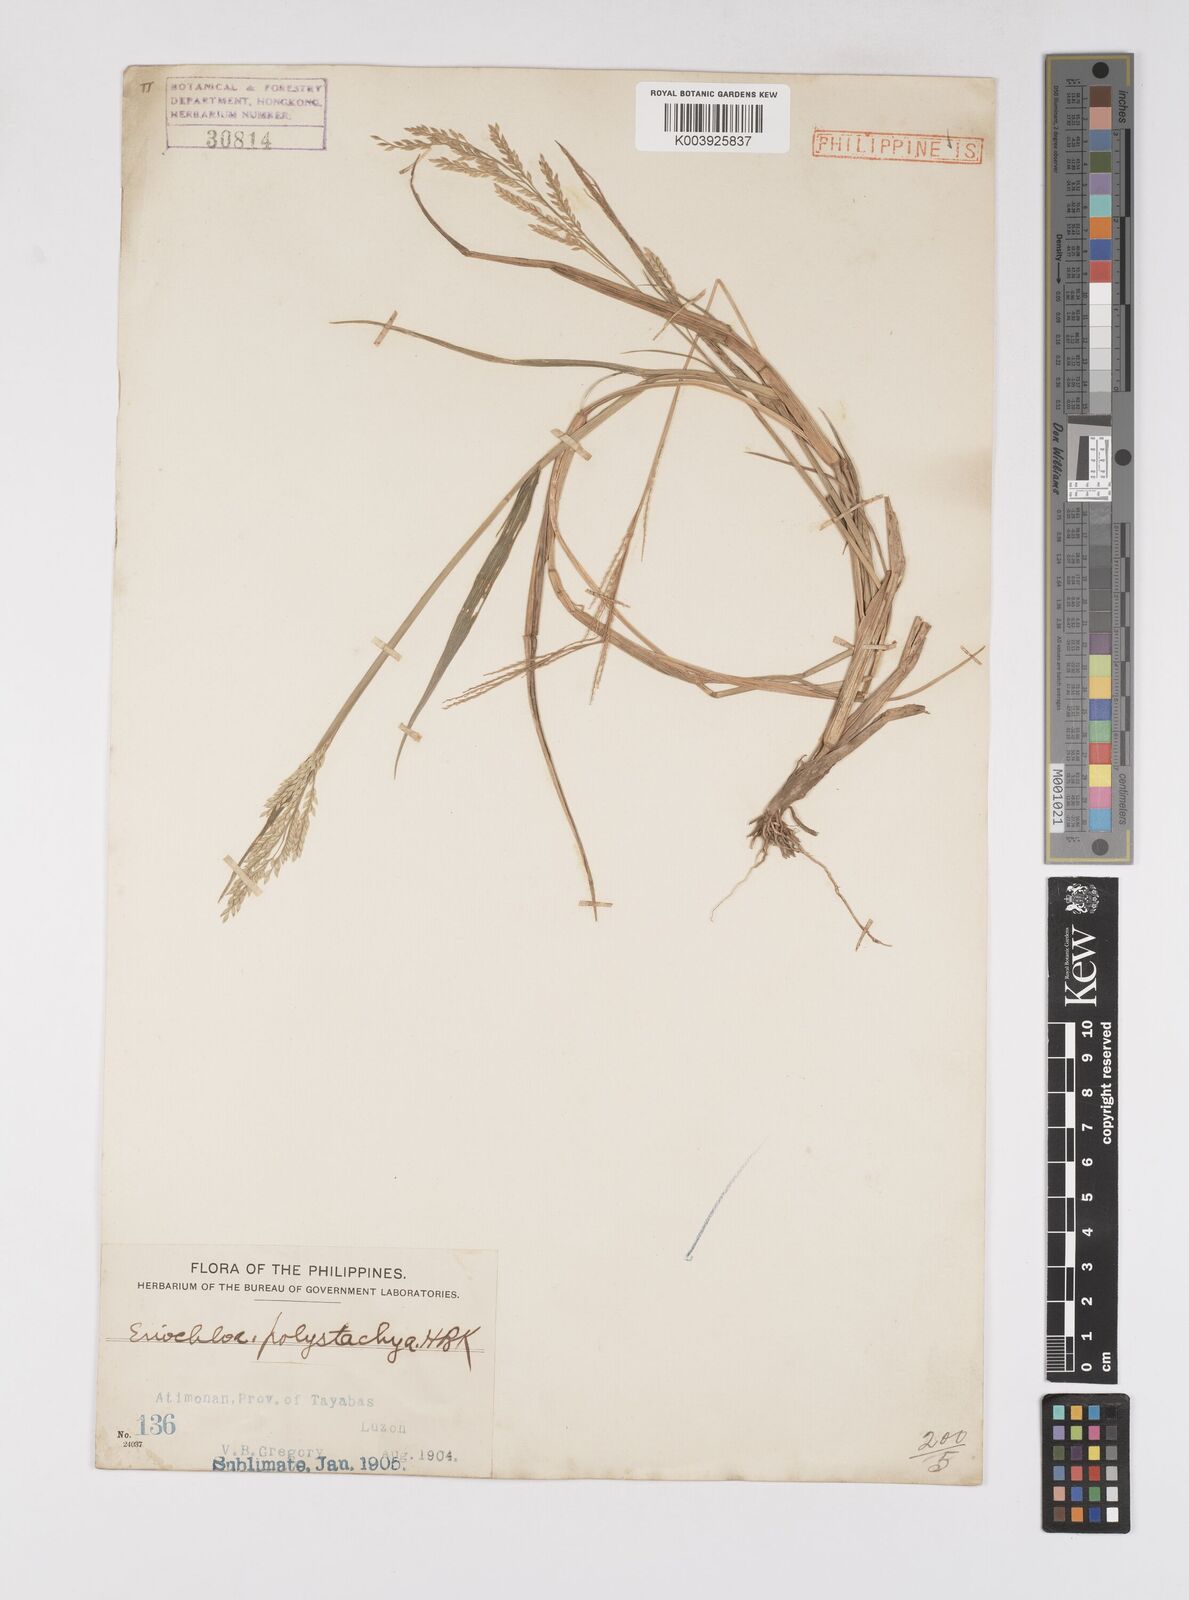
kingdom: Plantae
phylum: Tracheophyta
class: Liliopsida
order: Poales
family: Poaceae
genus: Eriochloa
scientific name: Eriochloa procera
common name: Spring grass
